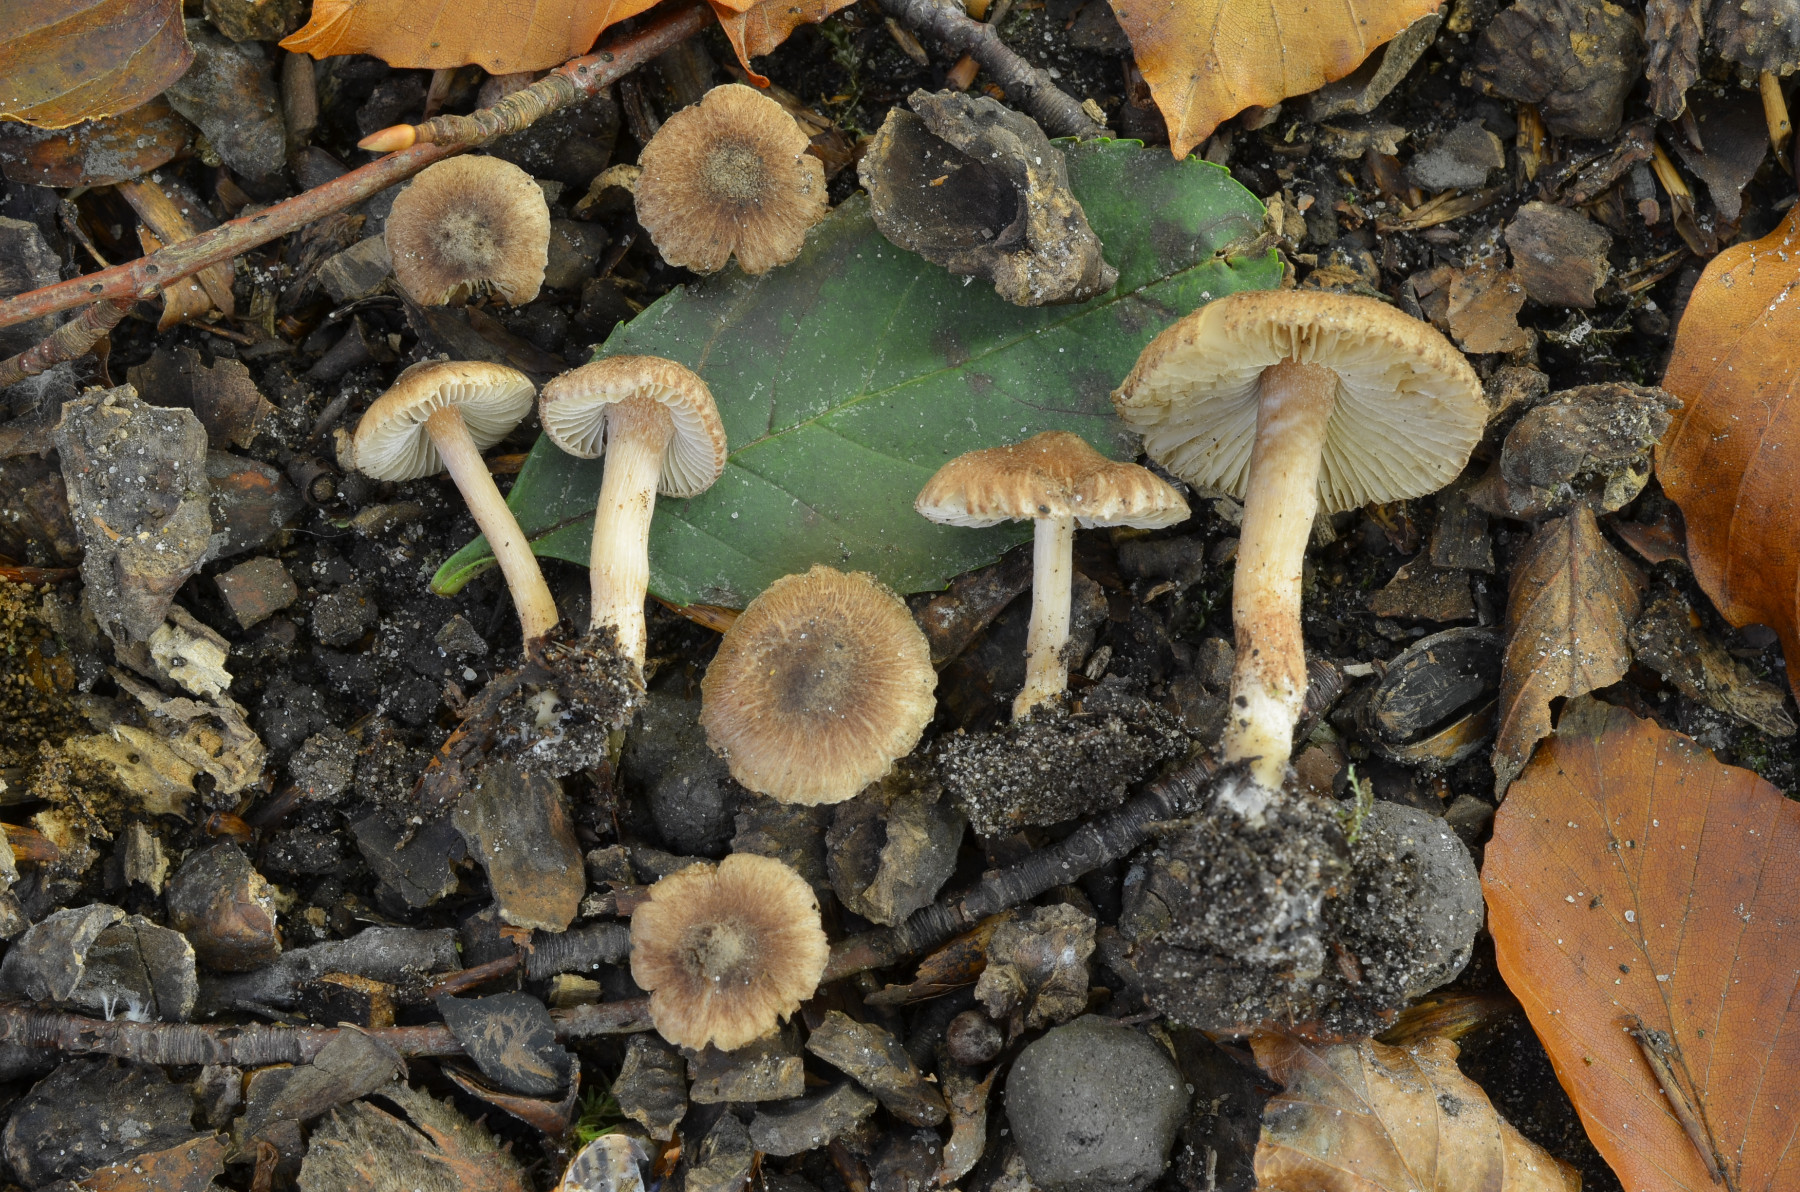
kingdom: Fungi
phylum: Basidiomycota
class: Agaricomycetes
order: Agaricales
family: Inocybaceae
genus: Inocybe
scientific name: Inocybe hamadryadis
